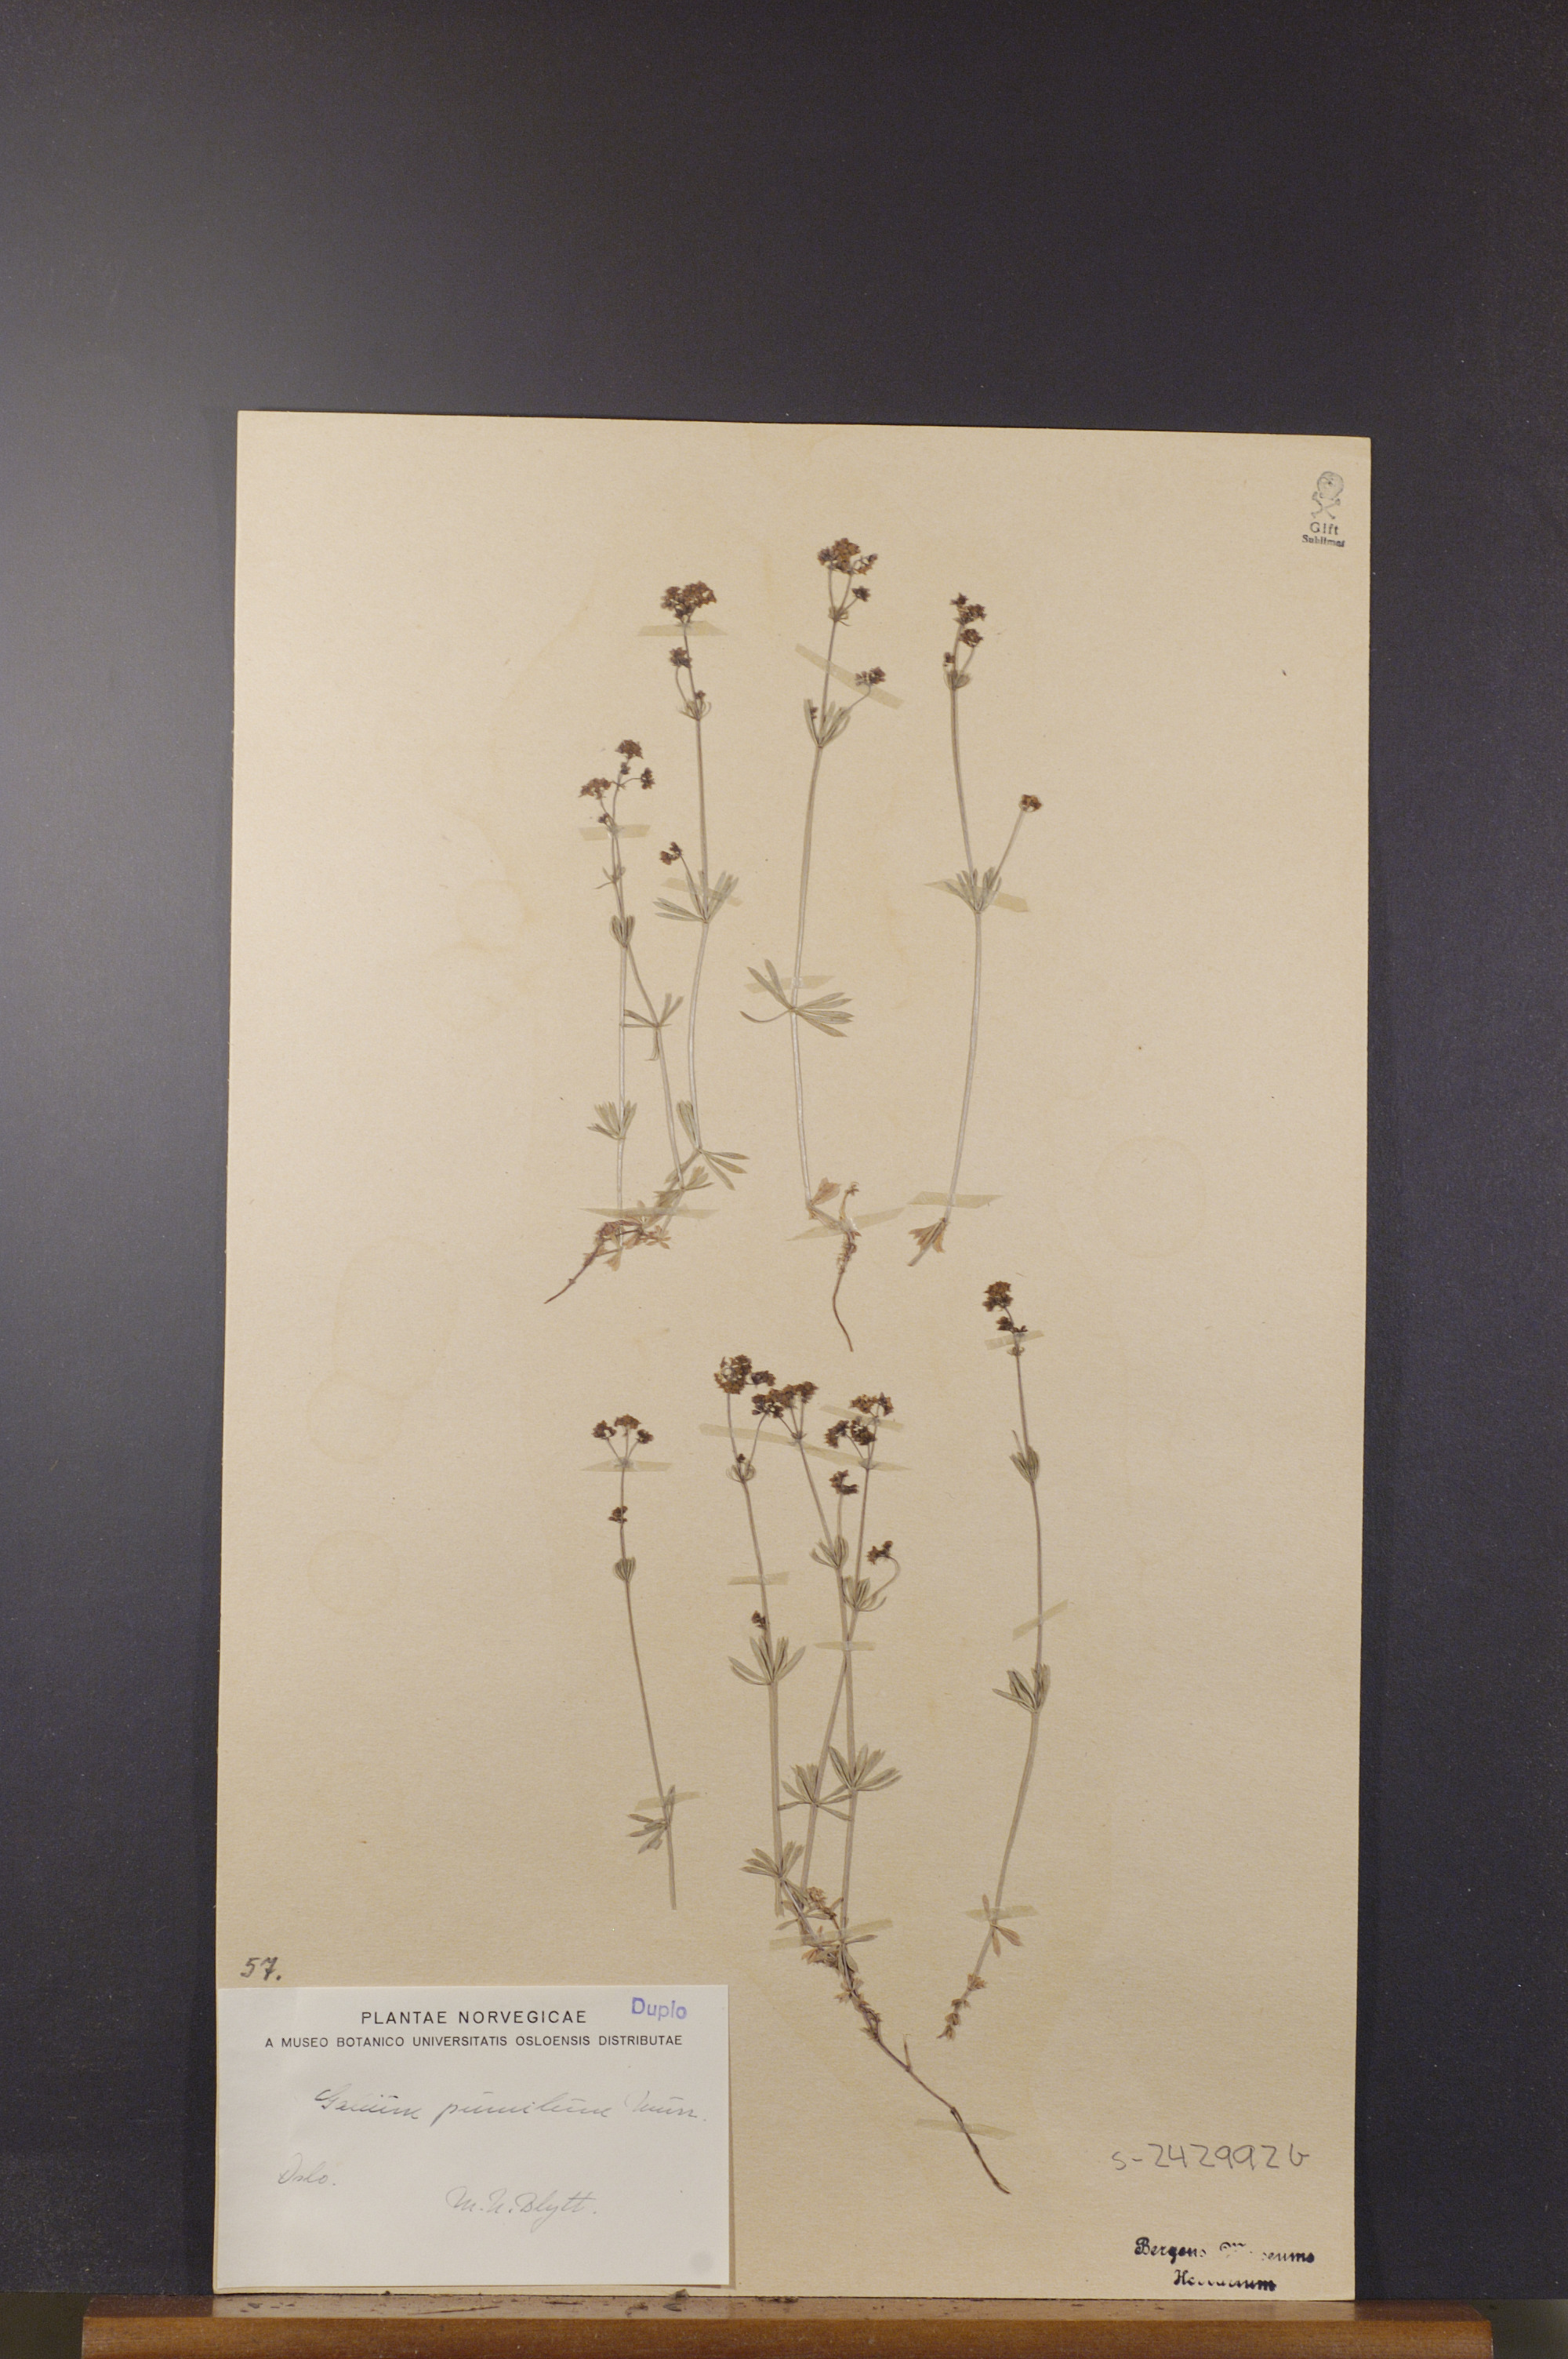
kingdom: Plantae
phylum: Tracheophyta
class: Magnoliopsida
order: Gentianales
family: Rubiaceae
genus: Galium
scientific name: Galium pumilum
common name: Slender bedstraw
